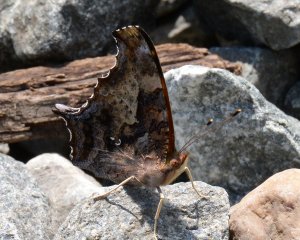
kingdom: Animalia
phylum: Arthropoda
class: Insecta
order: Lepidoptera
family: Nymphalidae
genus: Polygonia
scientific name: Polygonia interrogationis
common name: Question Mark
